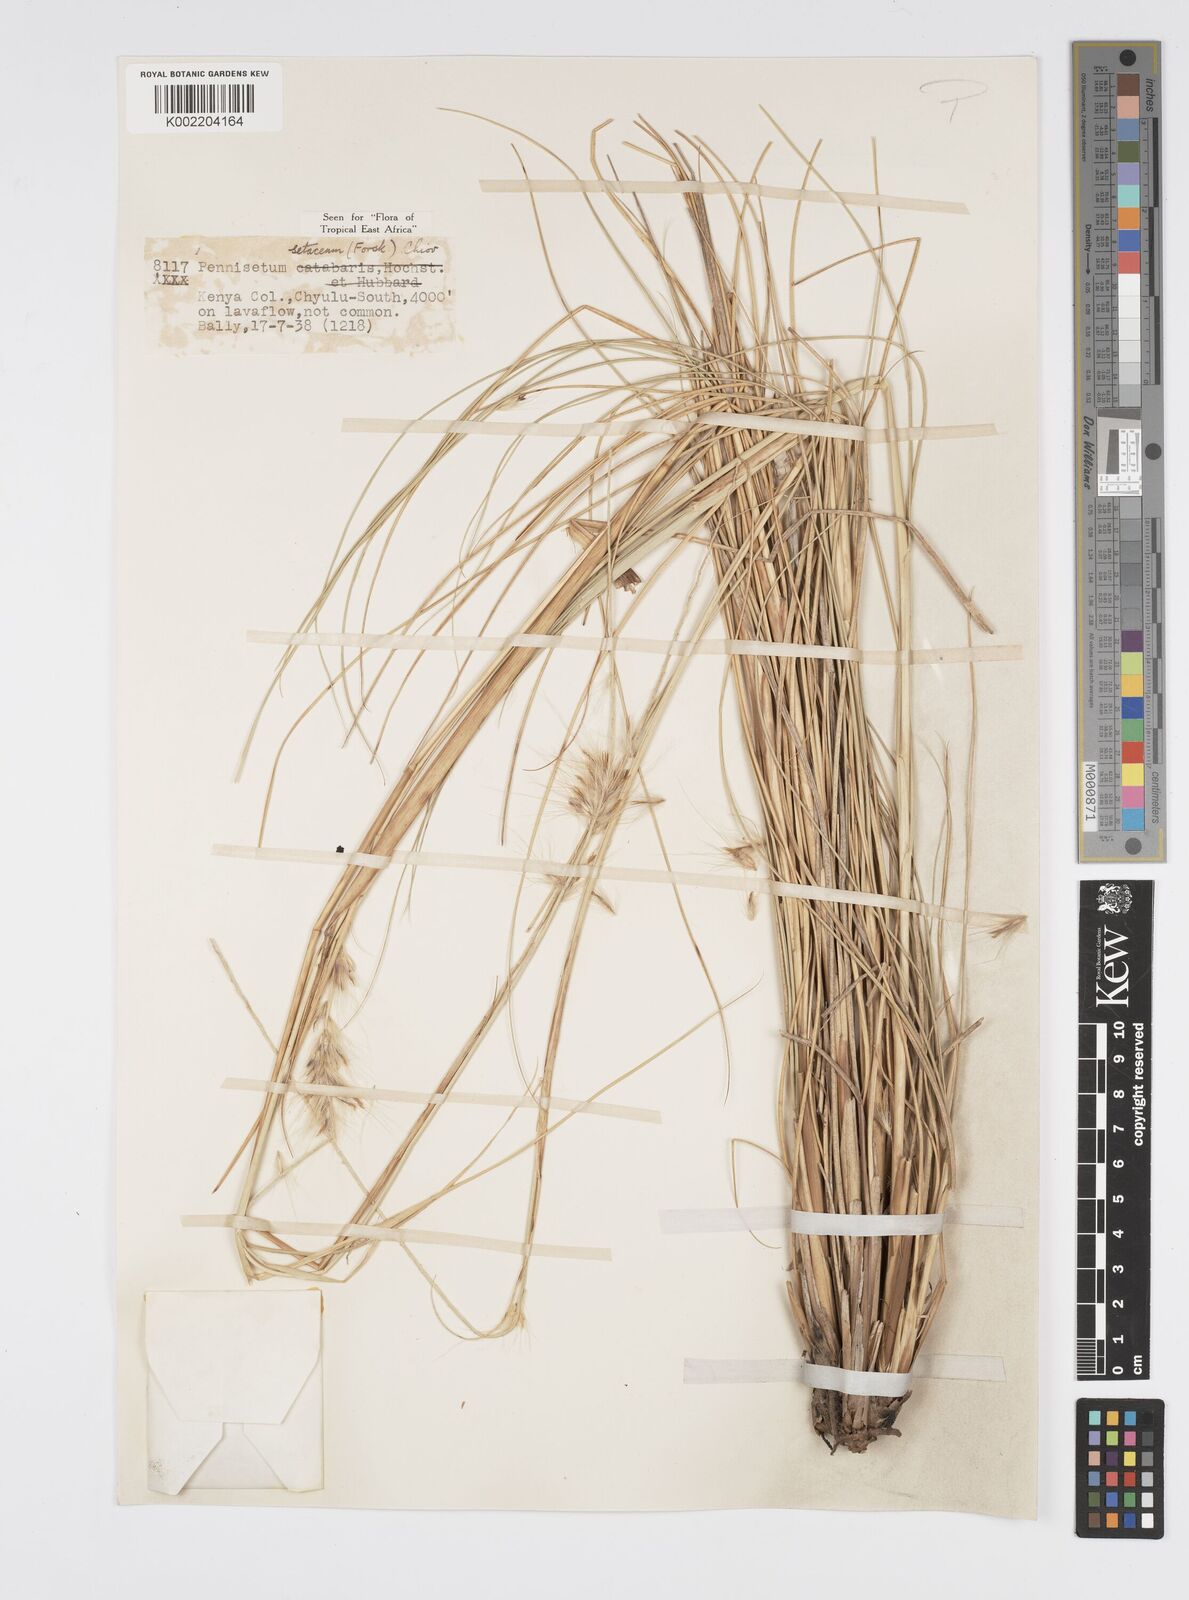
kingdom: Plantae
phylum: Tracheophyta
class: Liliopsida
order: Poales
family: Poaceae
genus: Cenchrus
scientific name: Cenchrus setaceus
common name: Crimson fountaingrass
